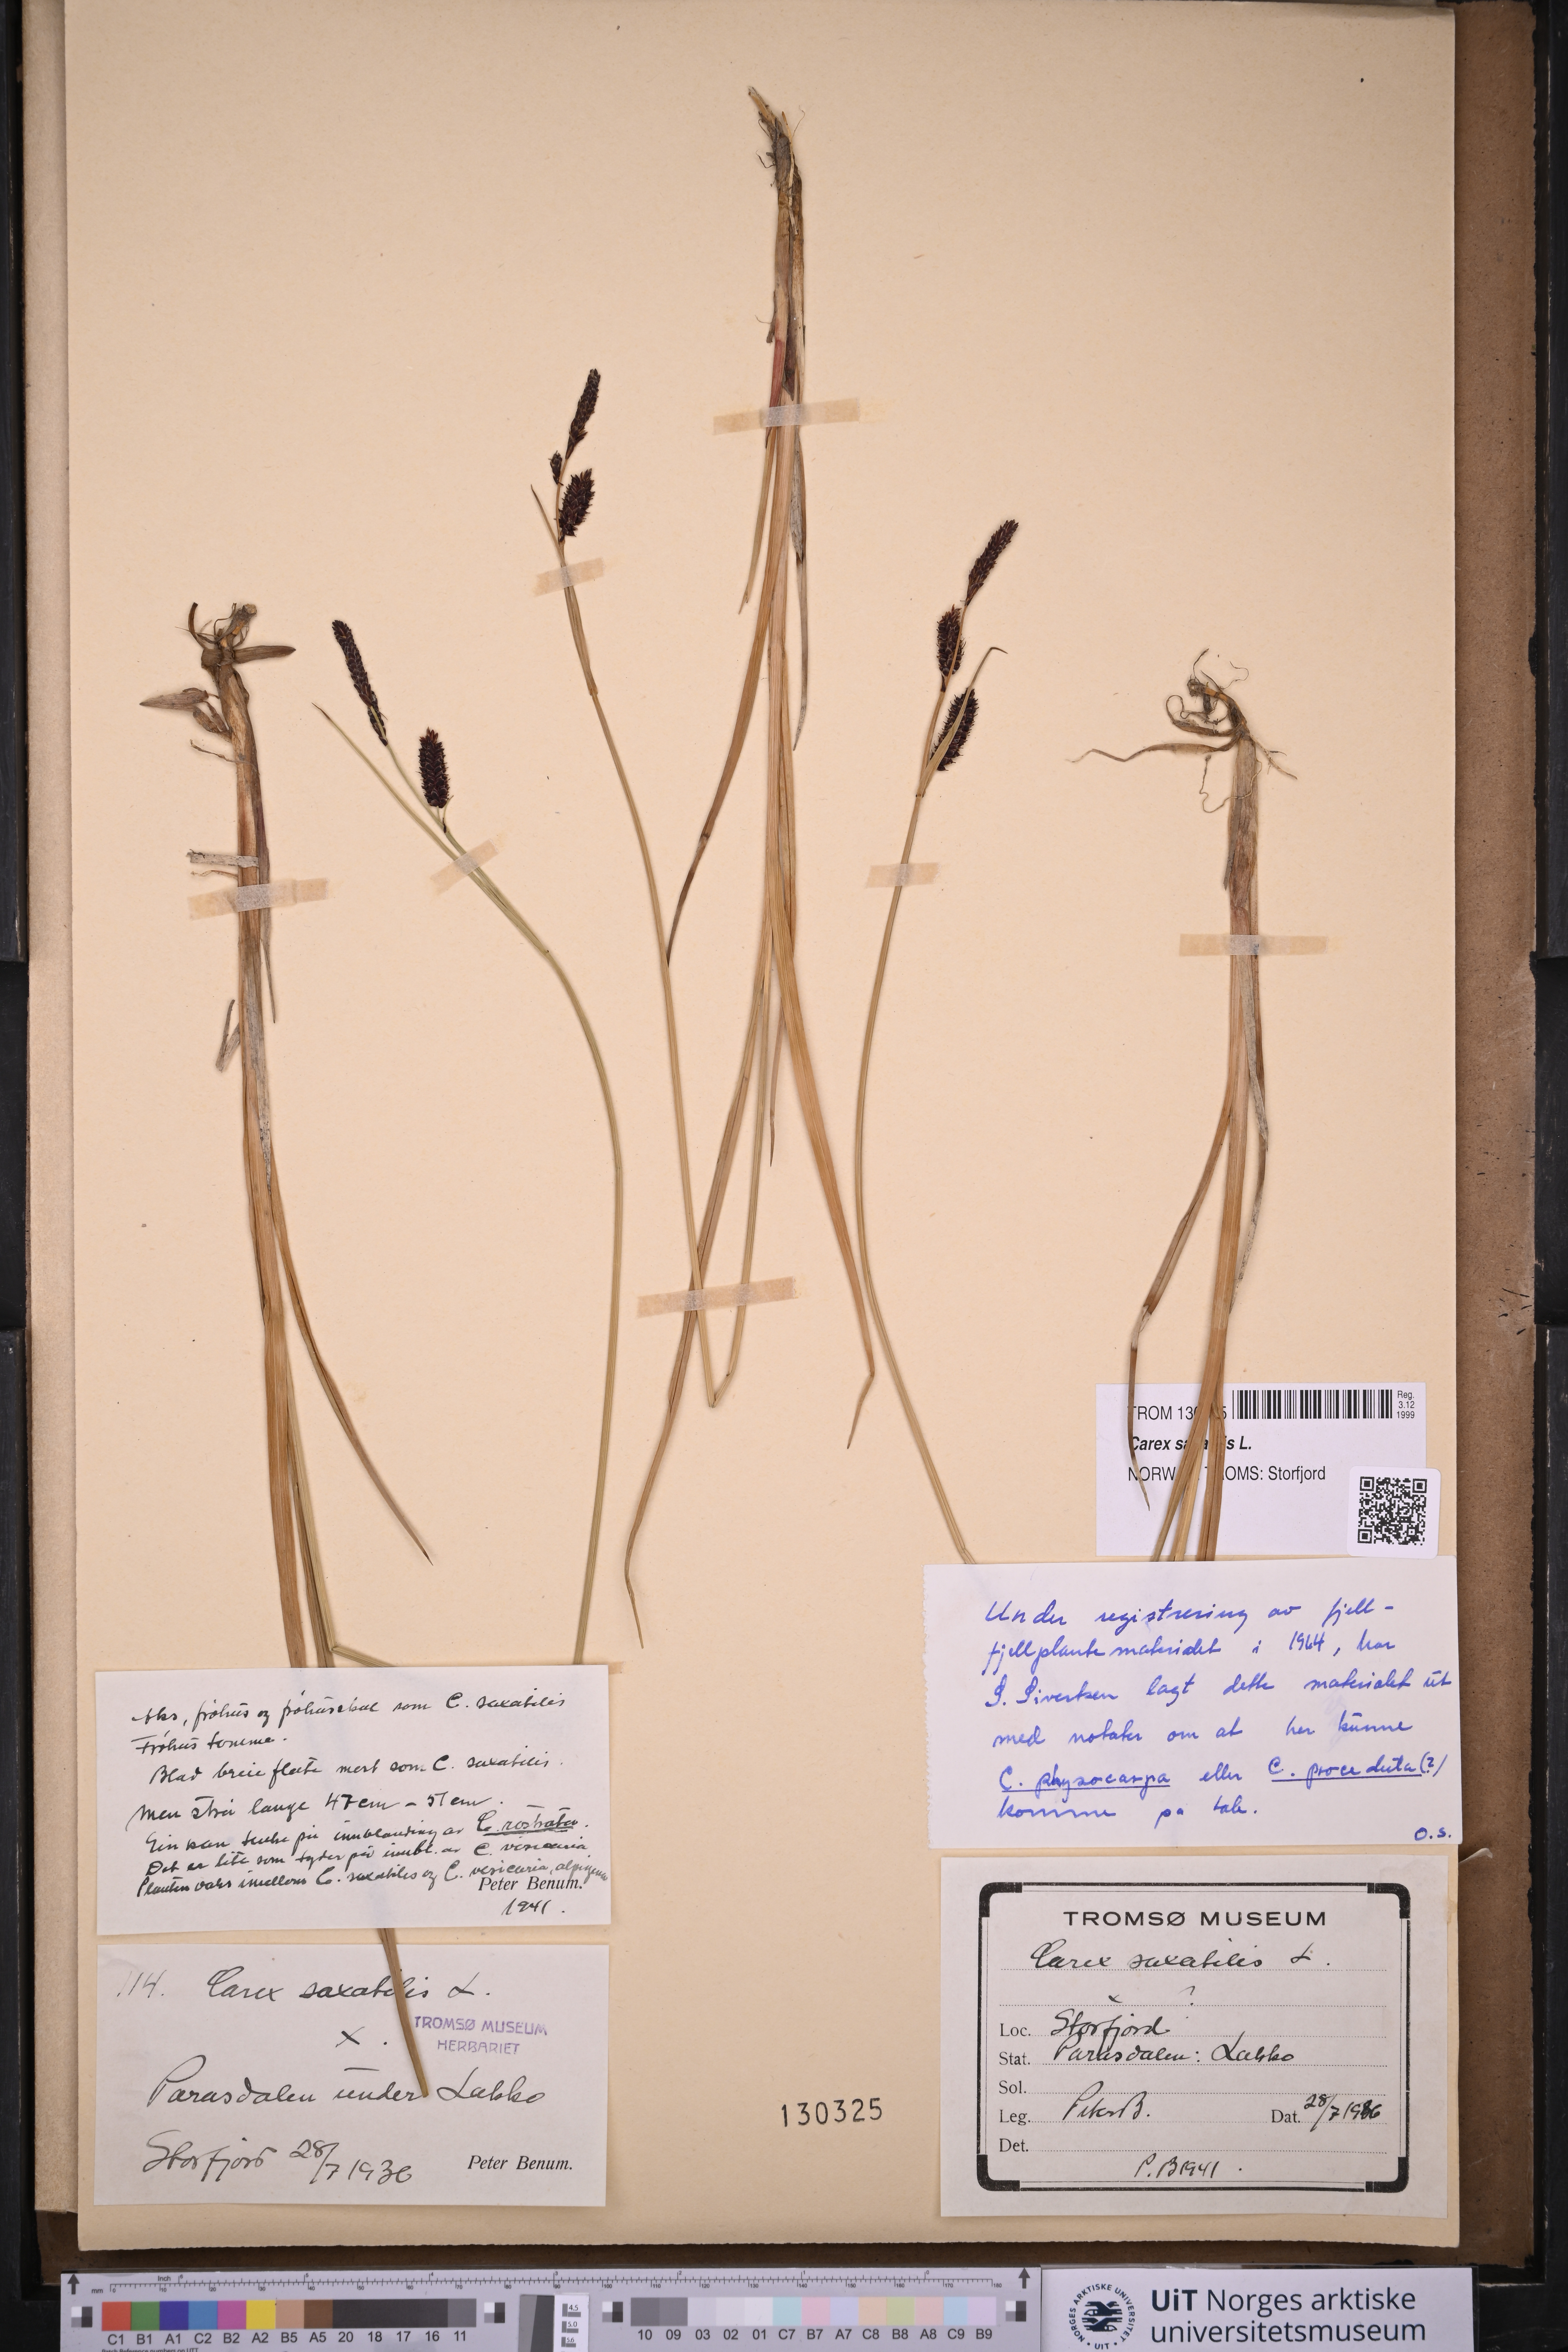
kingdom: Plantae
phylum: Tracheophyta
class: Liliopsida
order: Poales
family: Cyperaceae
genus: Carex
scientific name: Carex saxatilis
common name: Russet sedge
